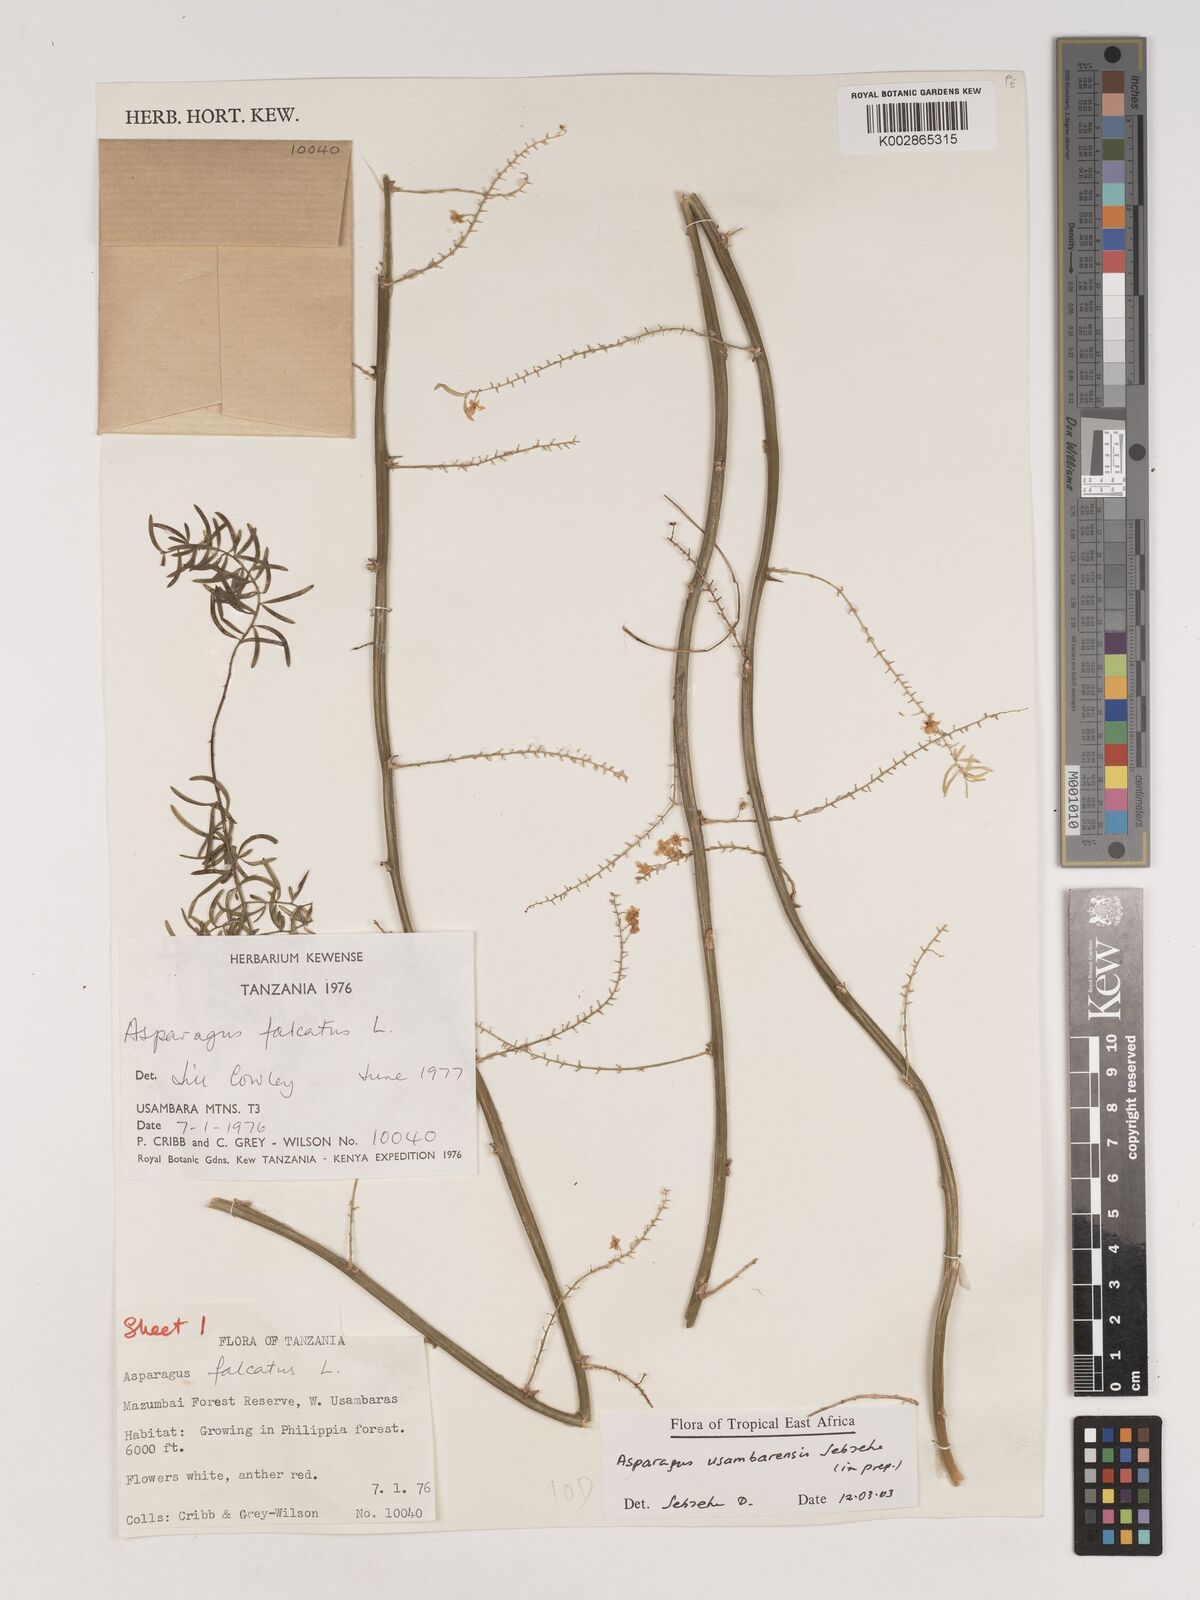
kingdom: Plantae
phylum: Tracheophyta
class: Liliopsida
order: Asparagales
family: Asparagaceae
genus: Asparagus
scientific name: Asparagus usambarensis
